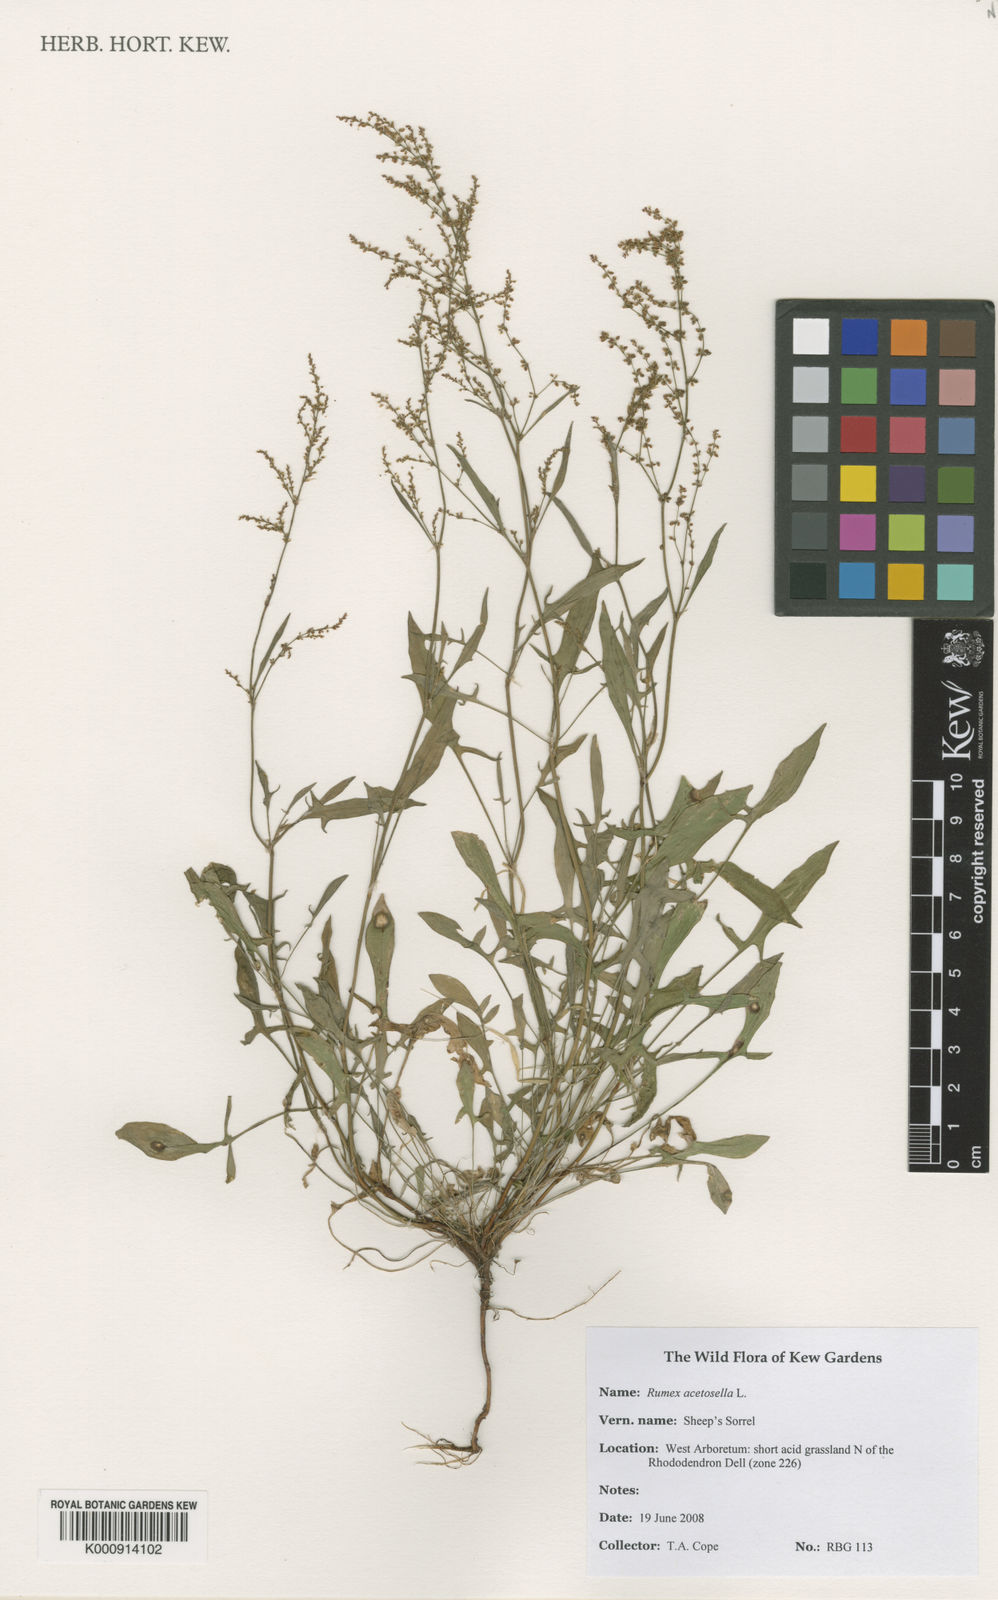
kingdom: Plantae
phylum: Tracheophyta
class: Magnoliopsida
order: Caryophyllales
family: Polygonaceae
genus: Rumex
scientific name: Rumex acetosella
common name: Common sheep sorrel
